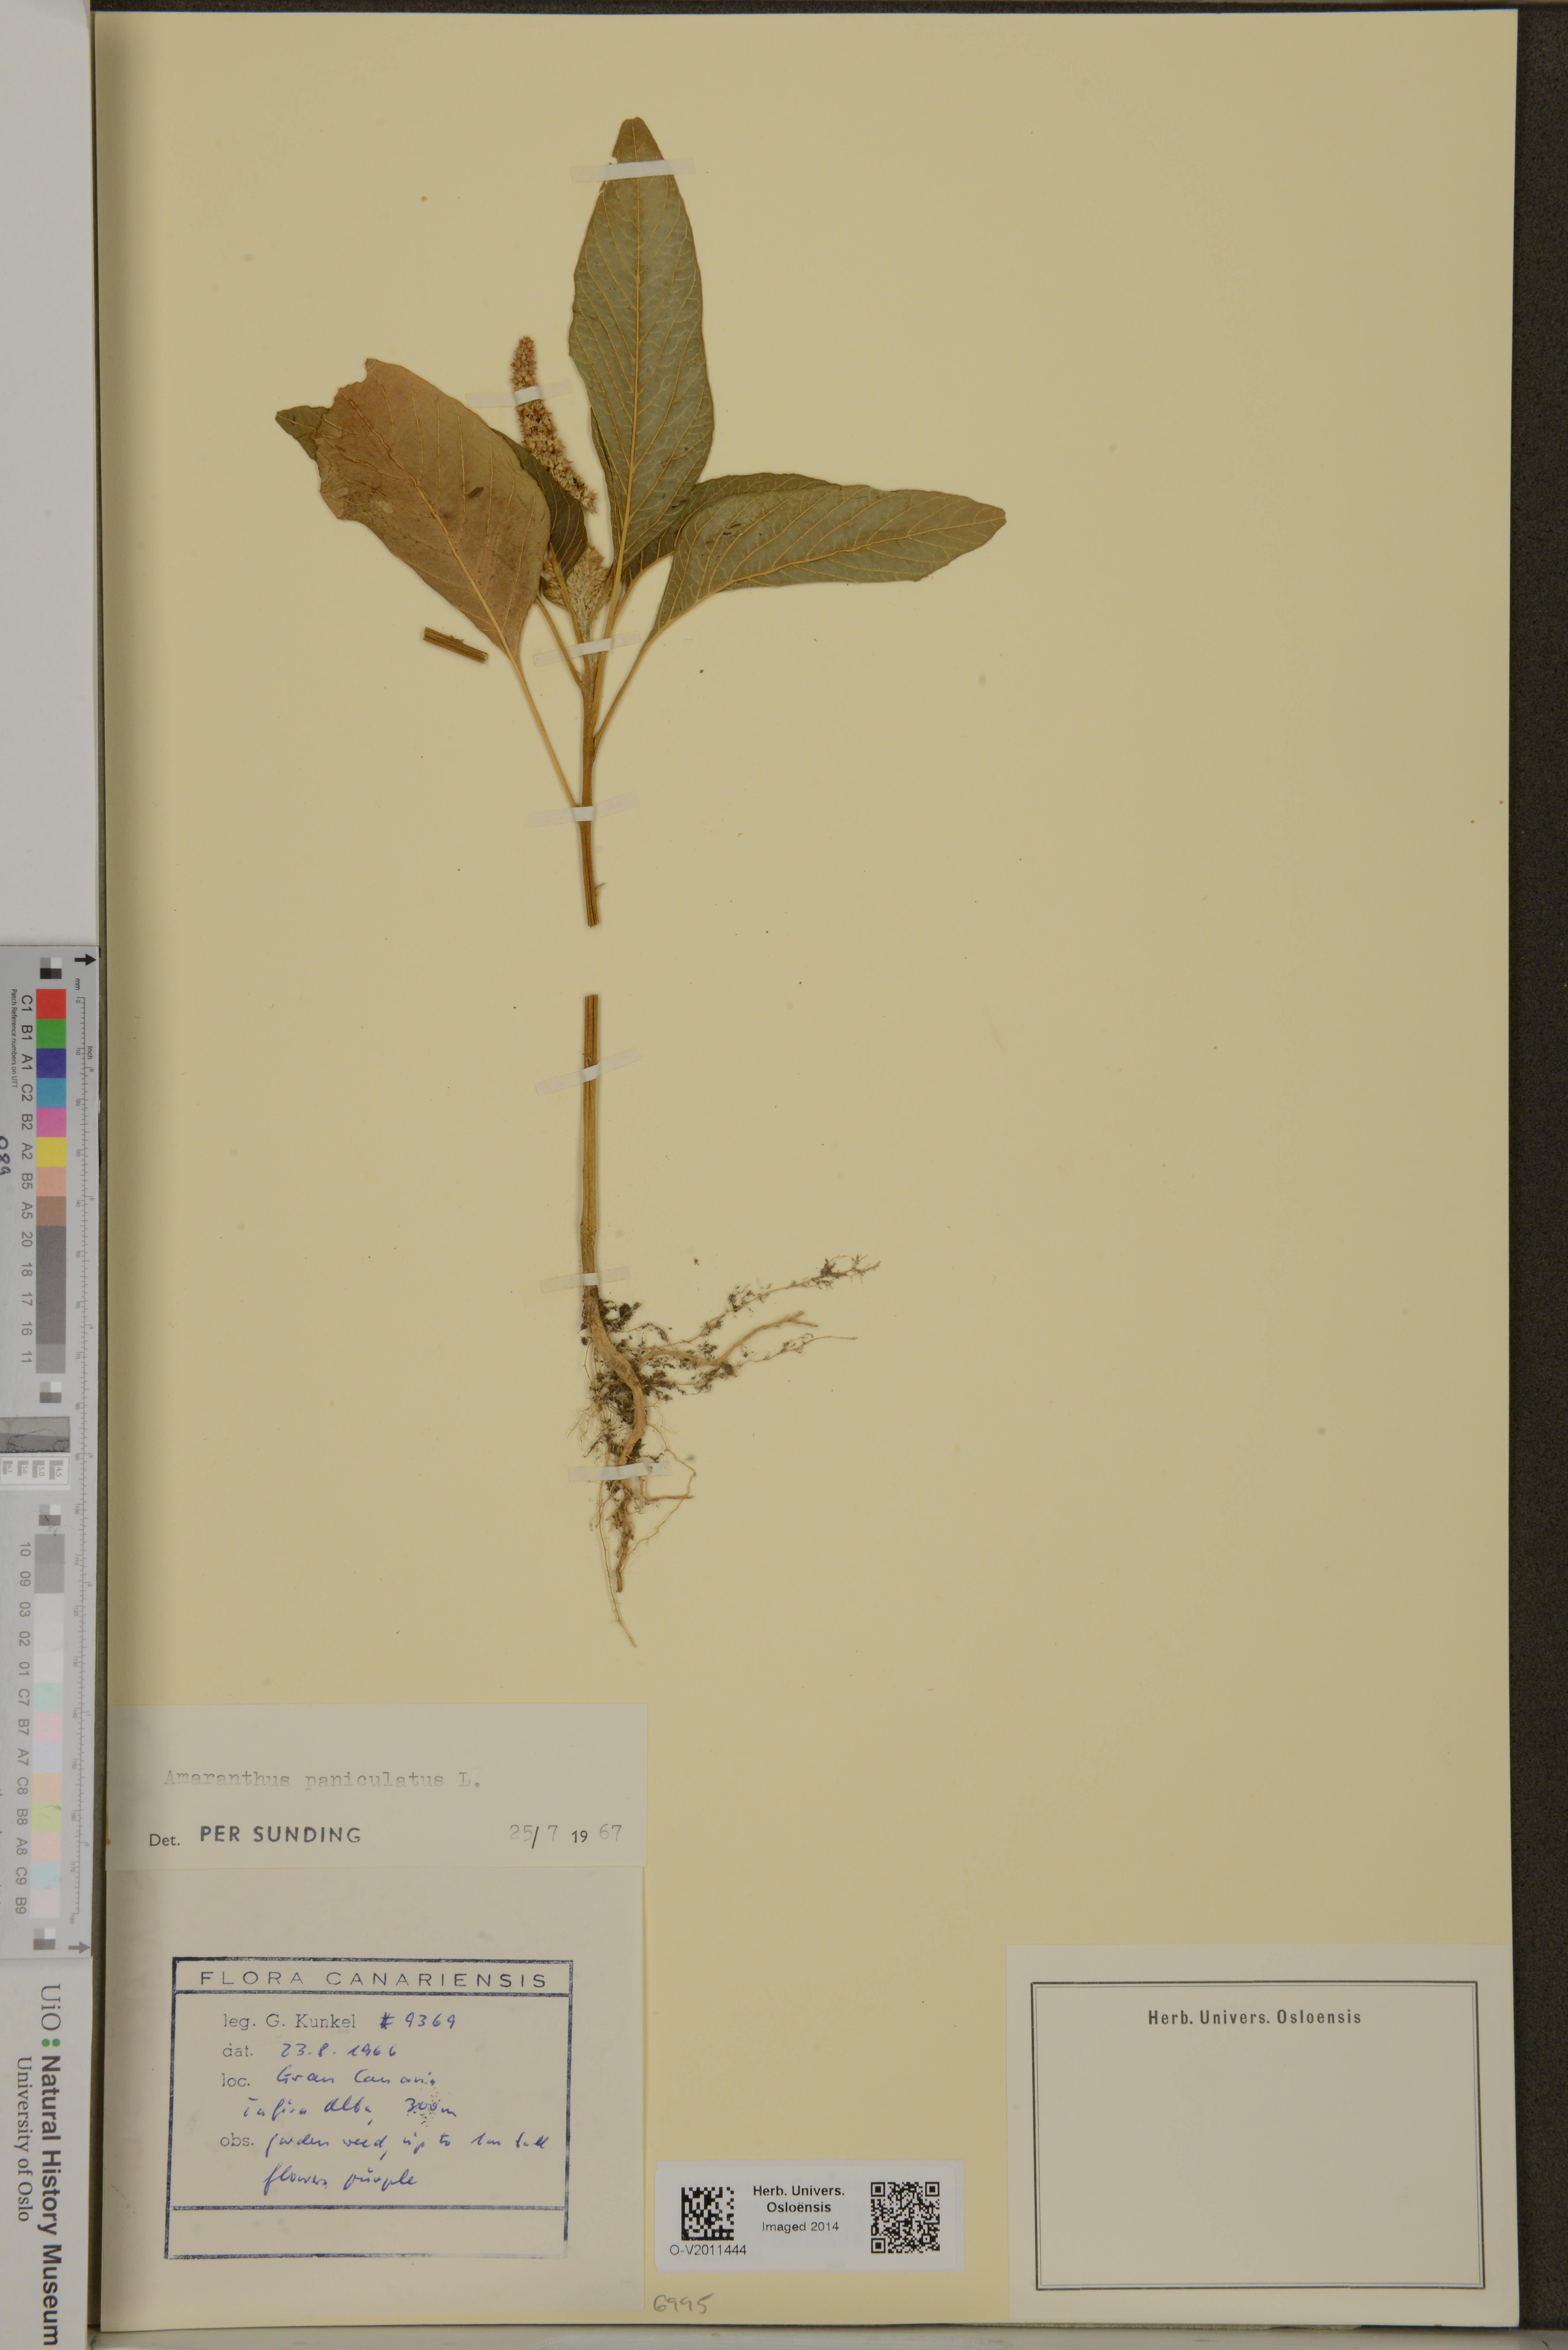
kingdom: Plantae
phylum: Tracheophyta
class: Magnoliopsida
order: Caryophyllales
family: Amaranthaceae
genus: Amaranthus
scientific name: Amaranthus cruentus
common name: Purple amaranth
